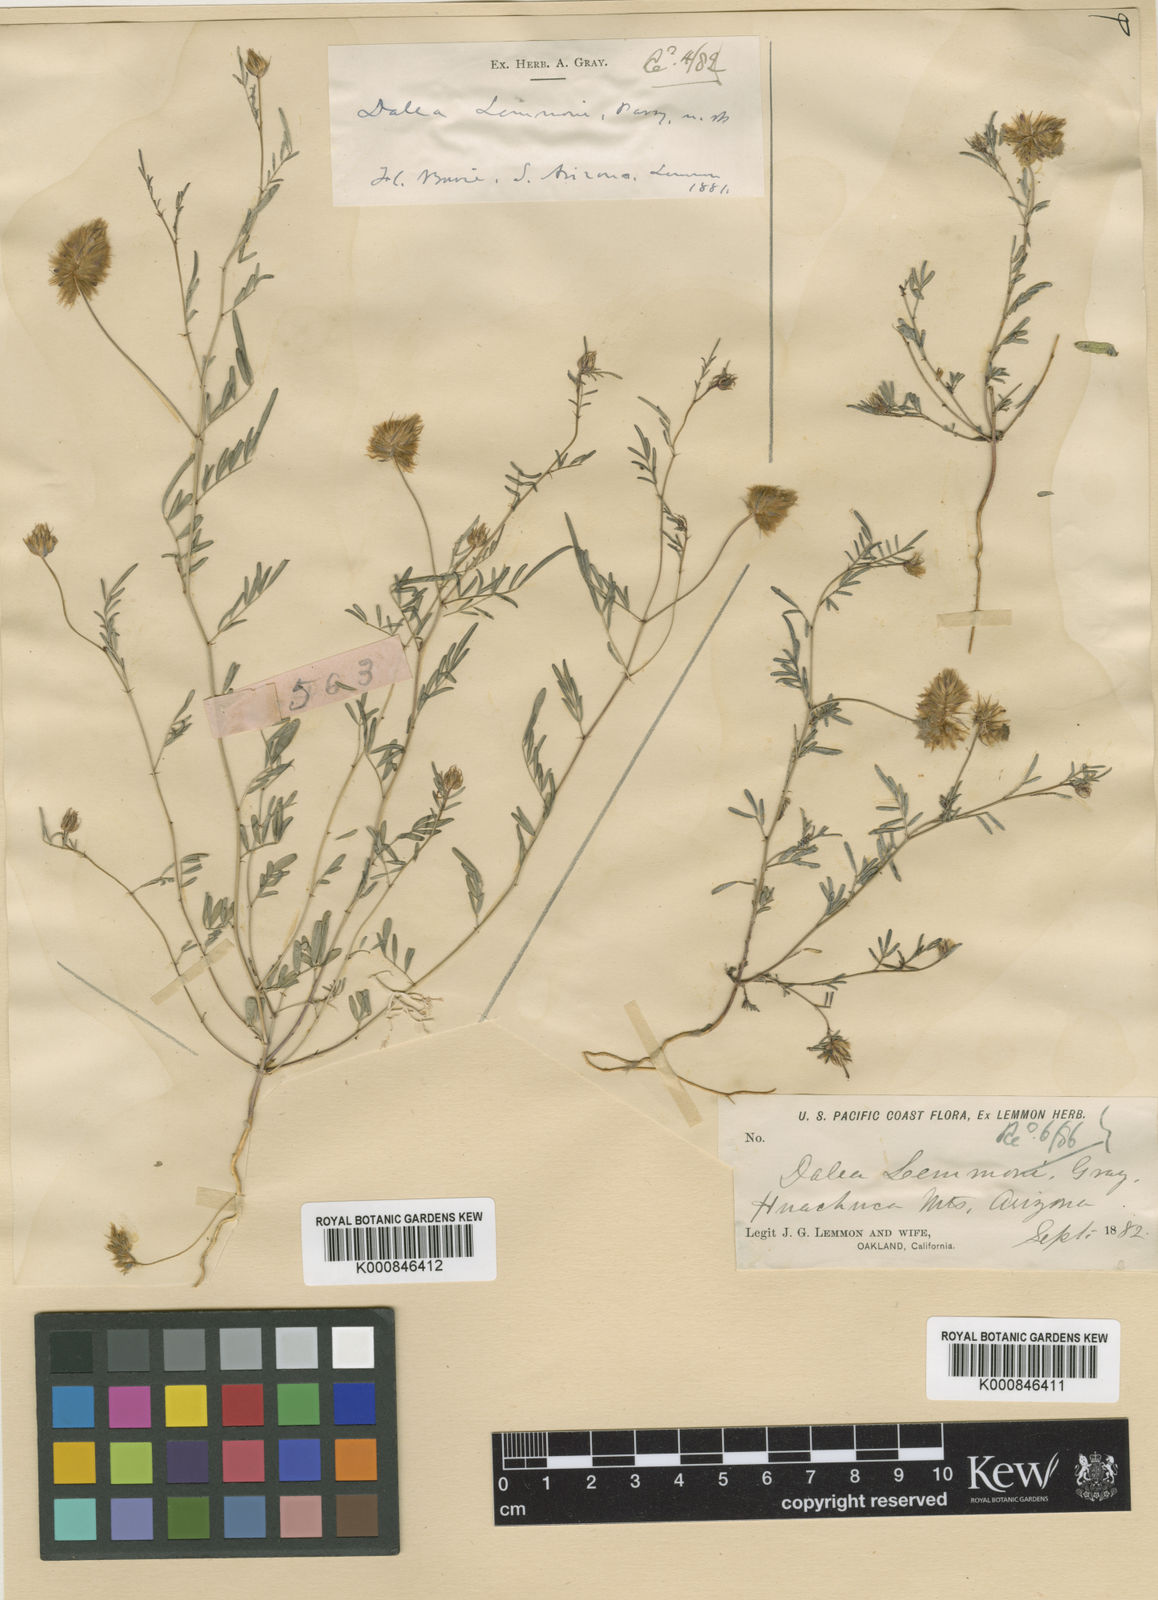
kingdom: Plantae
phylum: Tracheophyta
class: Magnoliopsida
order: Fabales
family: Fabaceae
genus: Dalea
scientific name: Dalea
